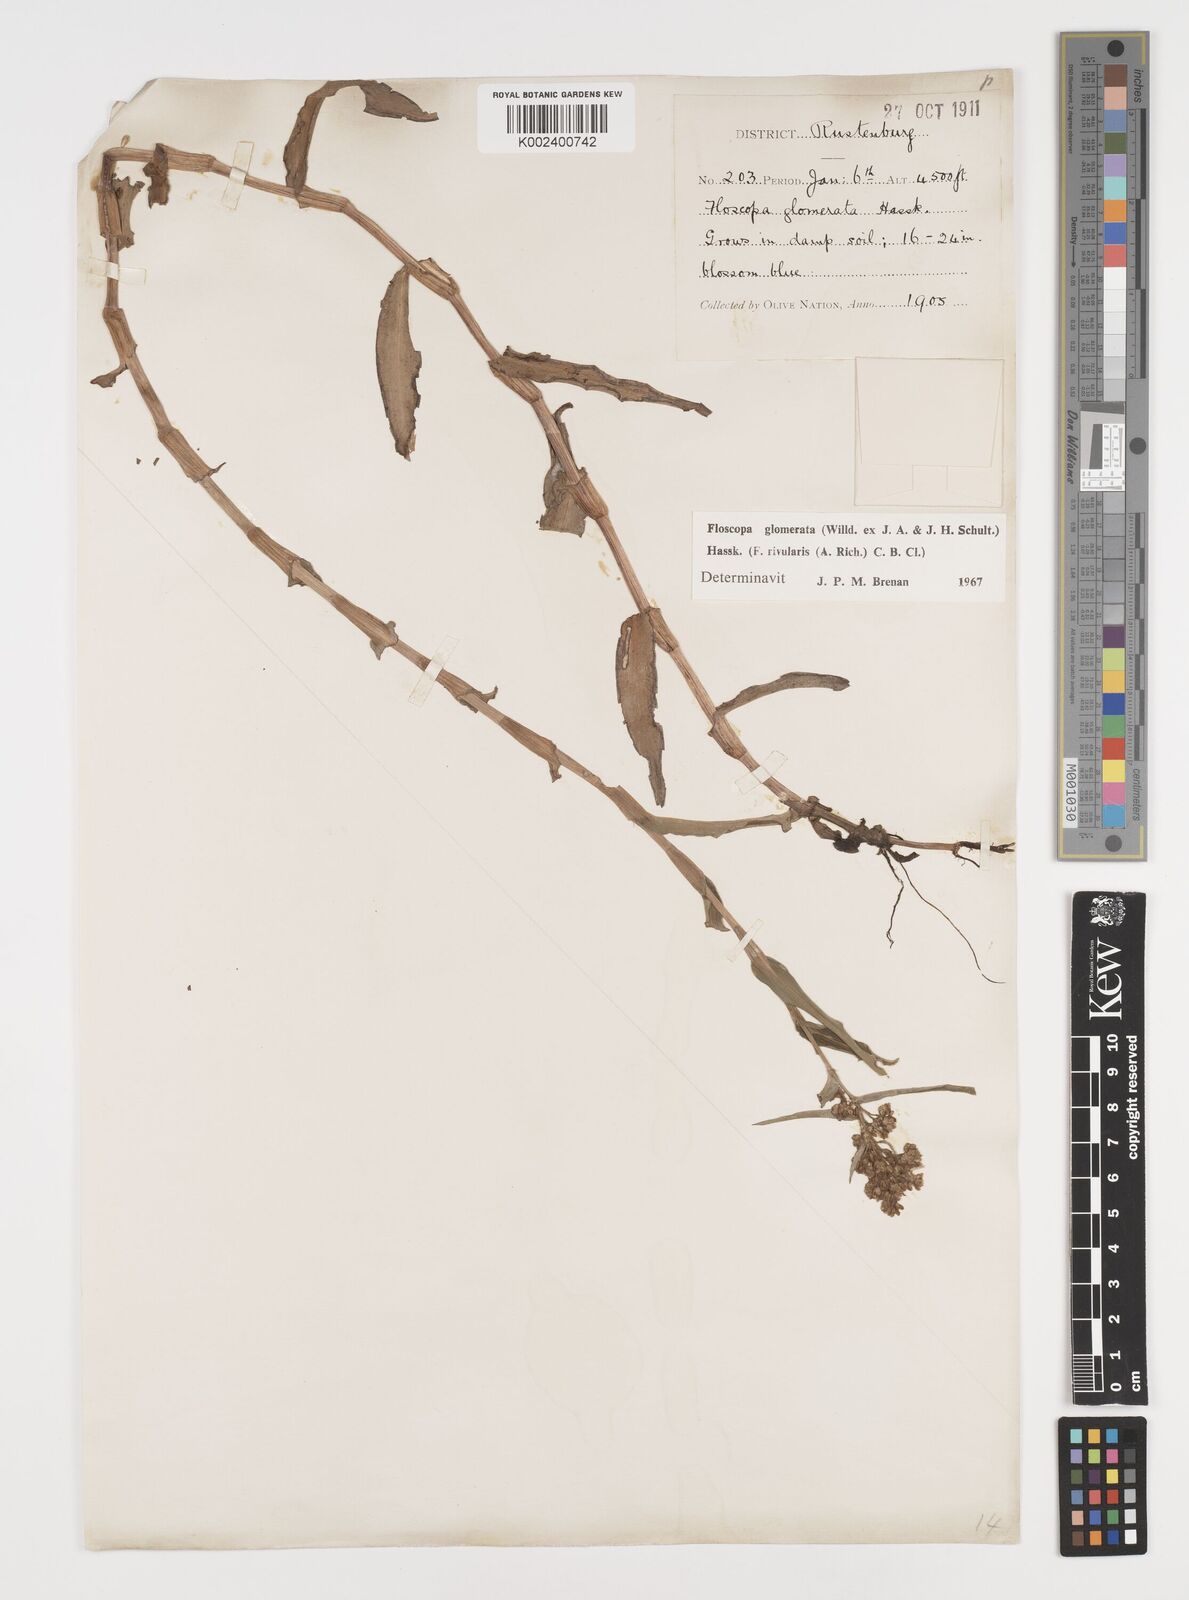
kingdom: Plantae
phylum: Tracheophyta
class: Liliopsida
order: Commelinales
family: Commelinaceae
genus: Floscopa
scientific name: Floscopa glomerata
